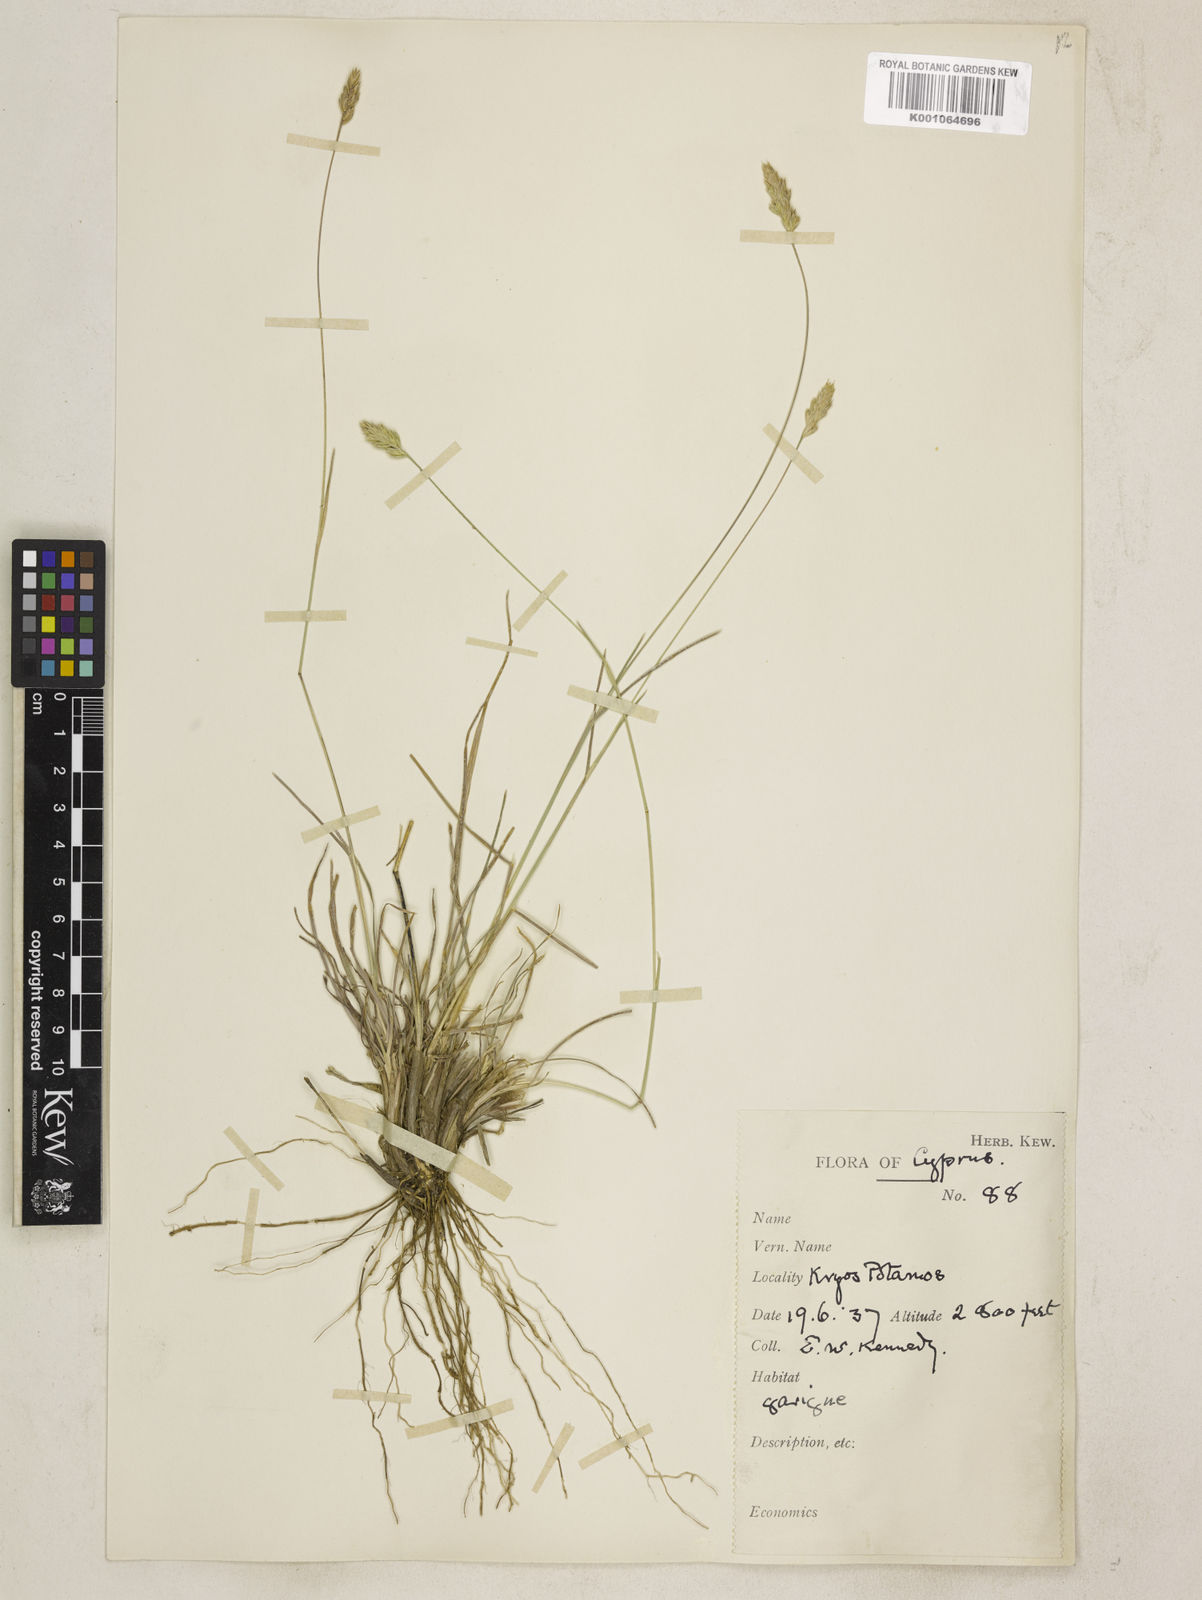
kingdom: Plantae
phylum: Tracheophyta
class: Liliopsida
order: Poales
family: Poaceae
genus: Dactylis
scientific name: Dactylis glomerata
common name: Orchardgrass
